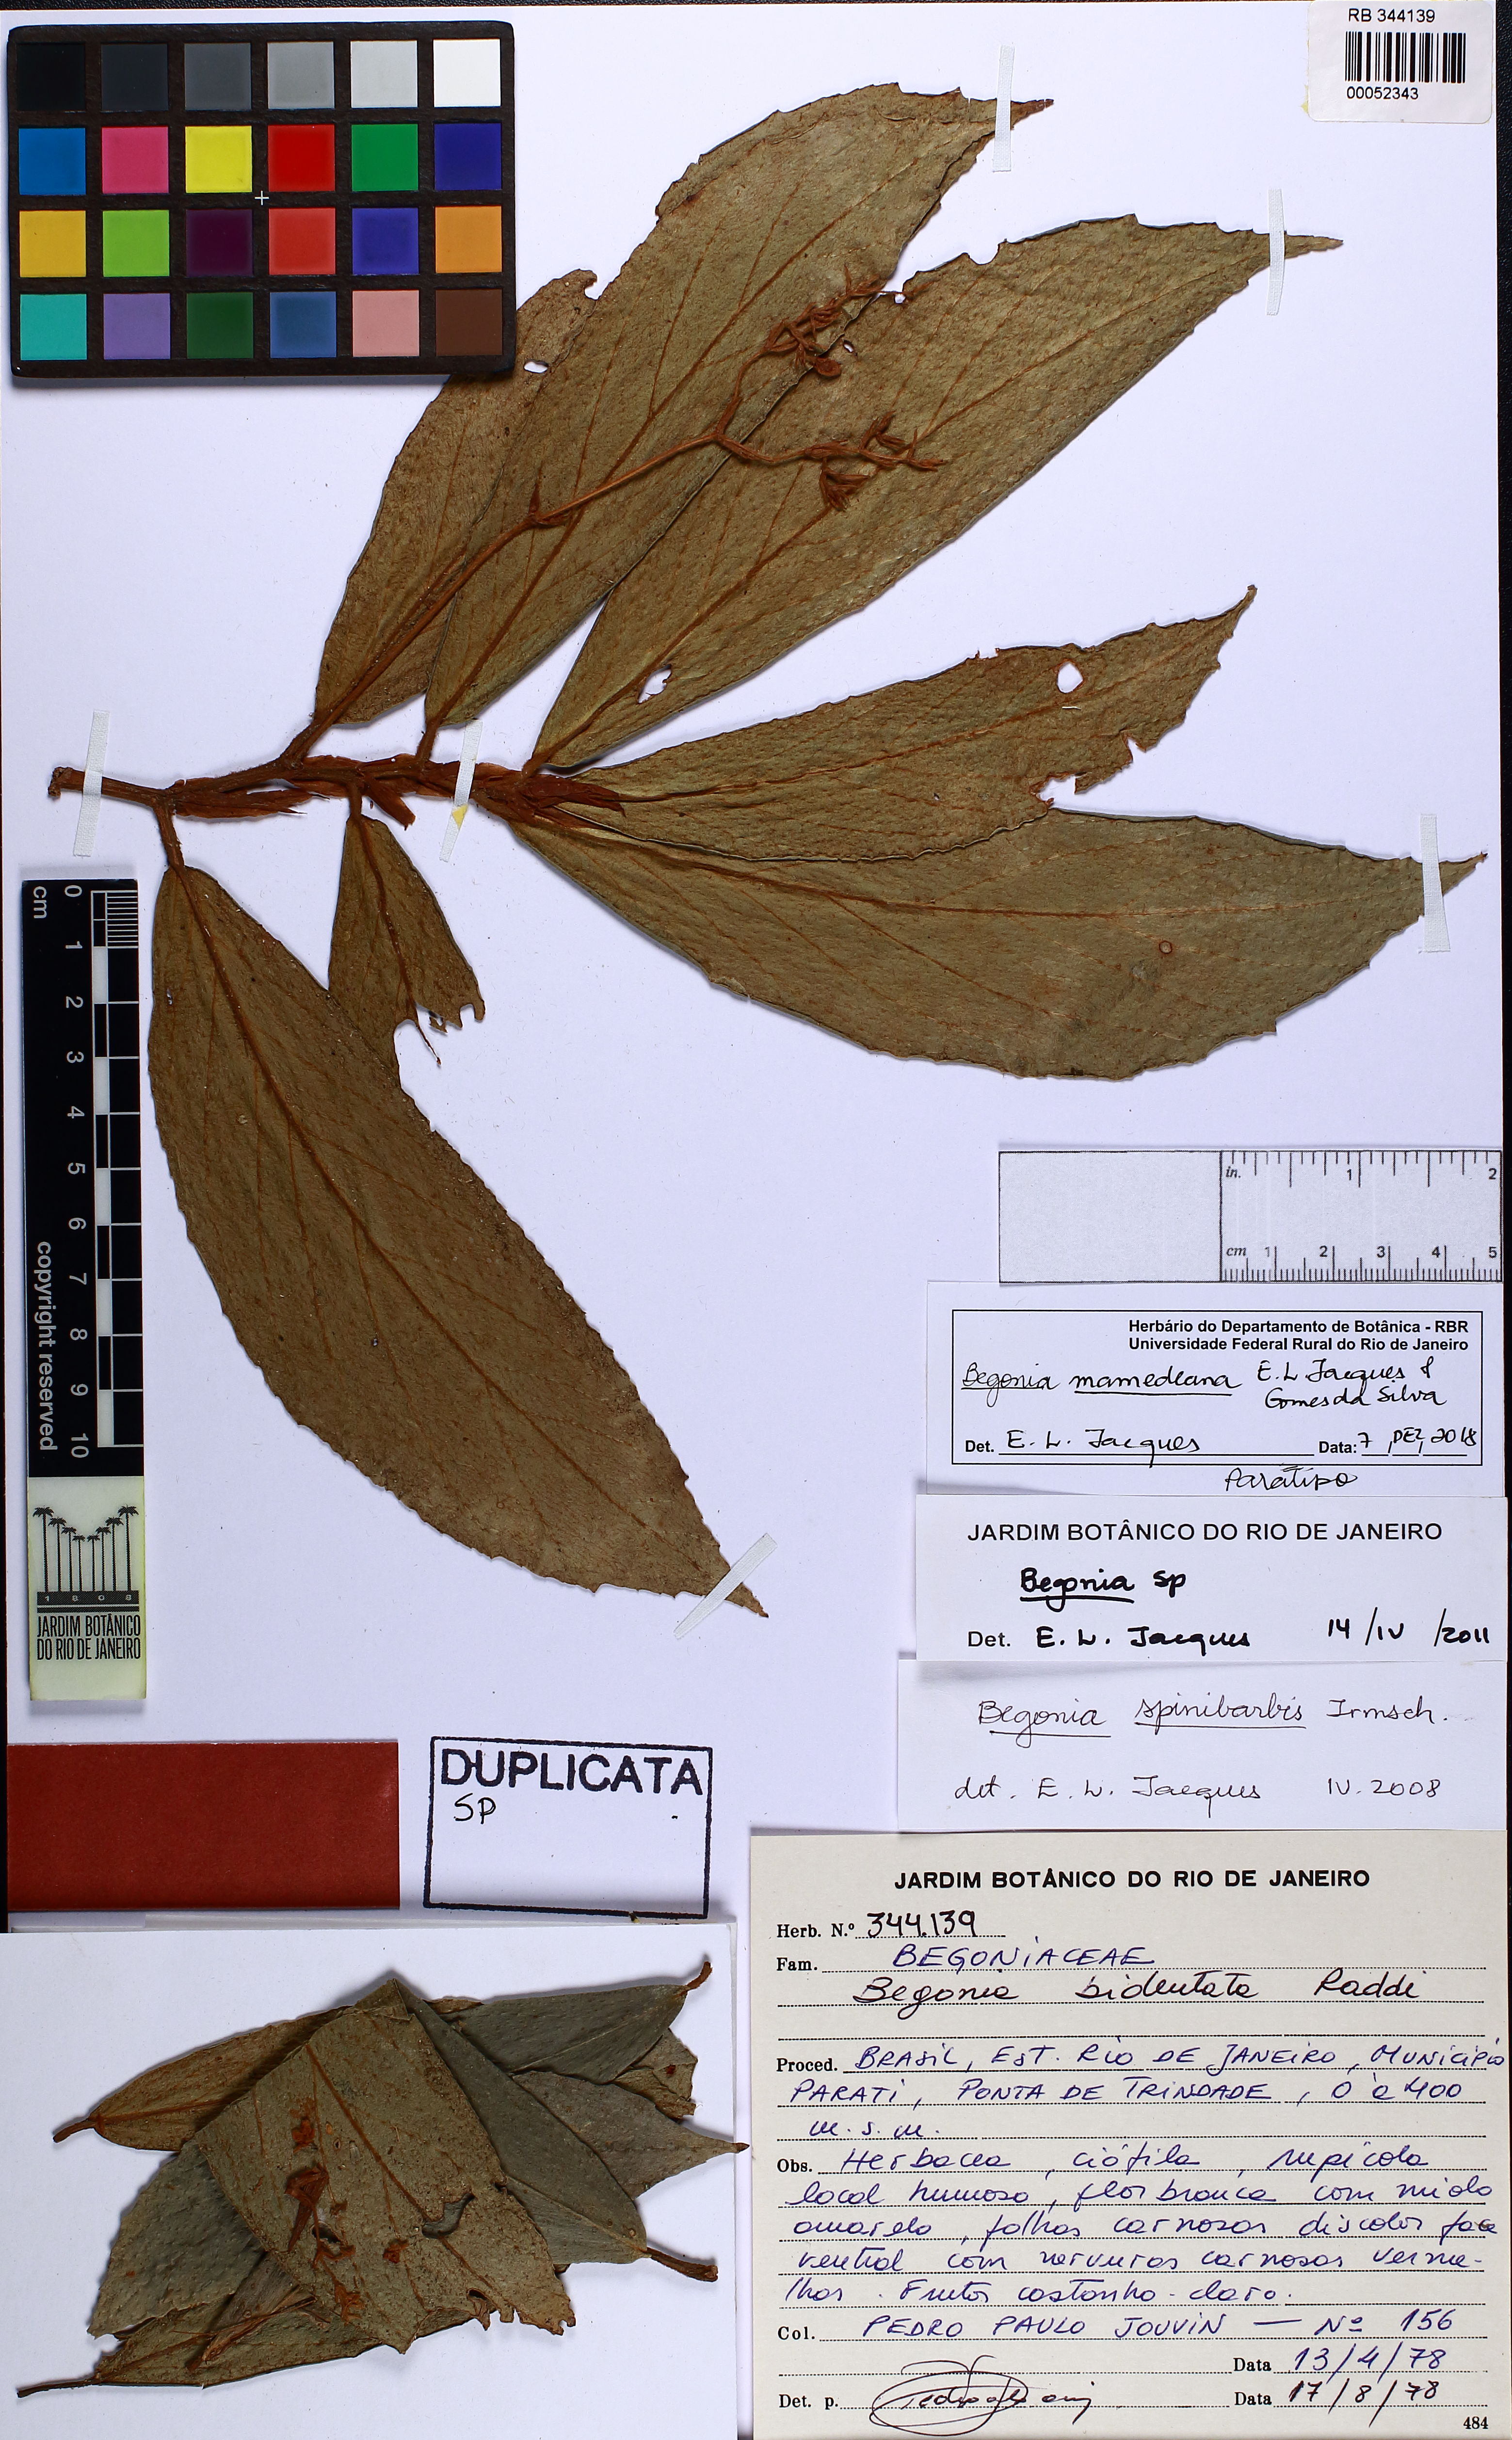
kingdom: Plantae
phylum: Tracheophyta
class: Magnoliopsida
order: Cucurbitales
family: Begoniaceae
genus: Begonia
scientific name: Begonia mamedeana
